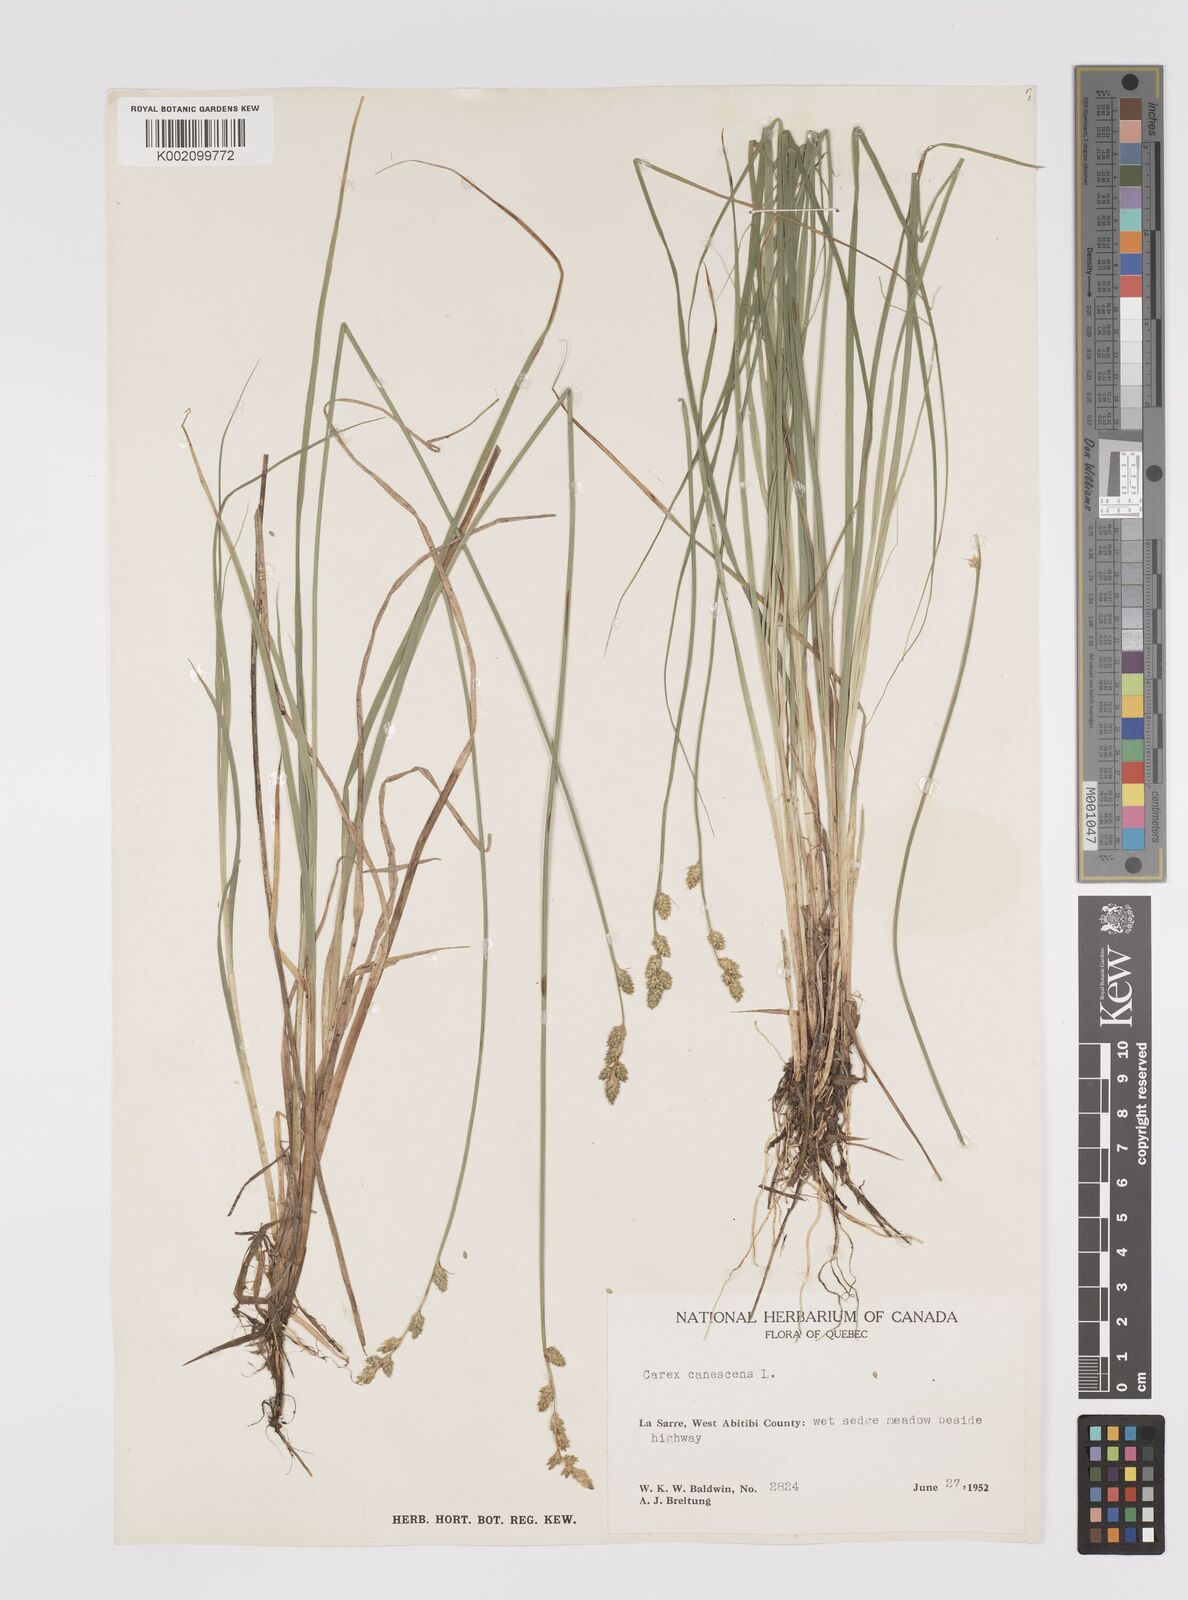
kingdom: Plantae
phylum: Tracheophyta
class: Liliopsida
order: Poales
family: Cyperaceae
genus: Carex
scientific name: Carex curta
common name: White sedge
